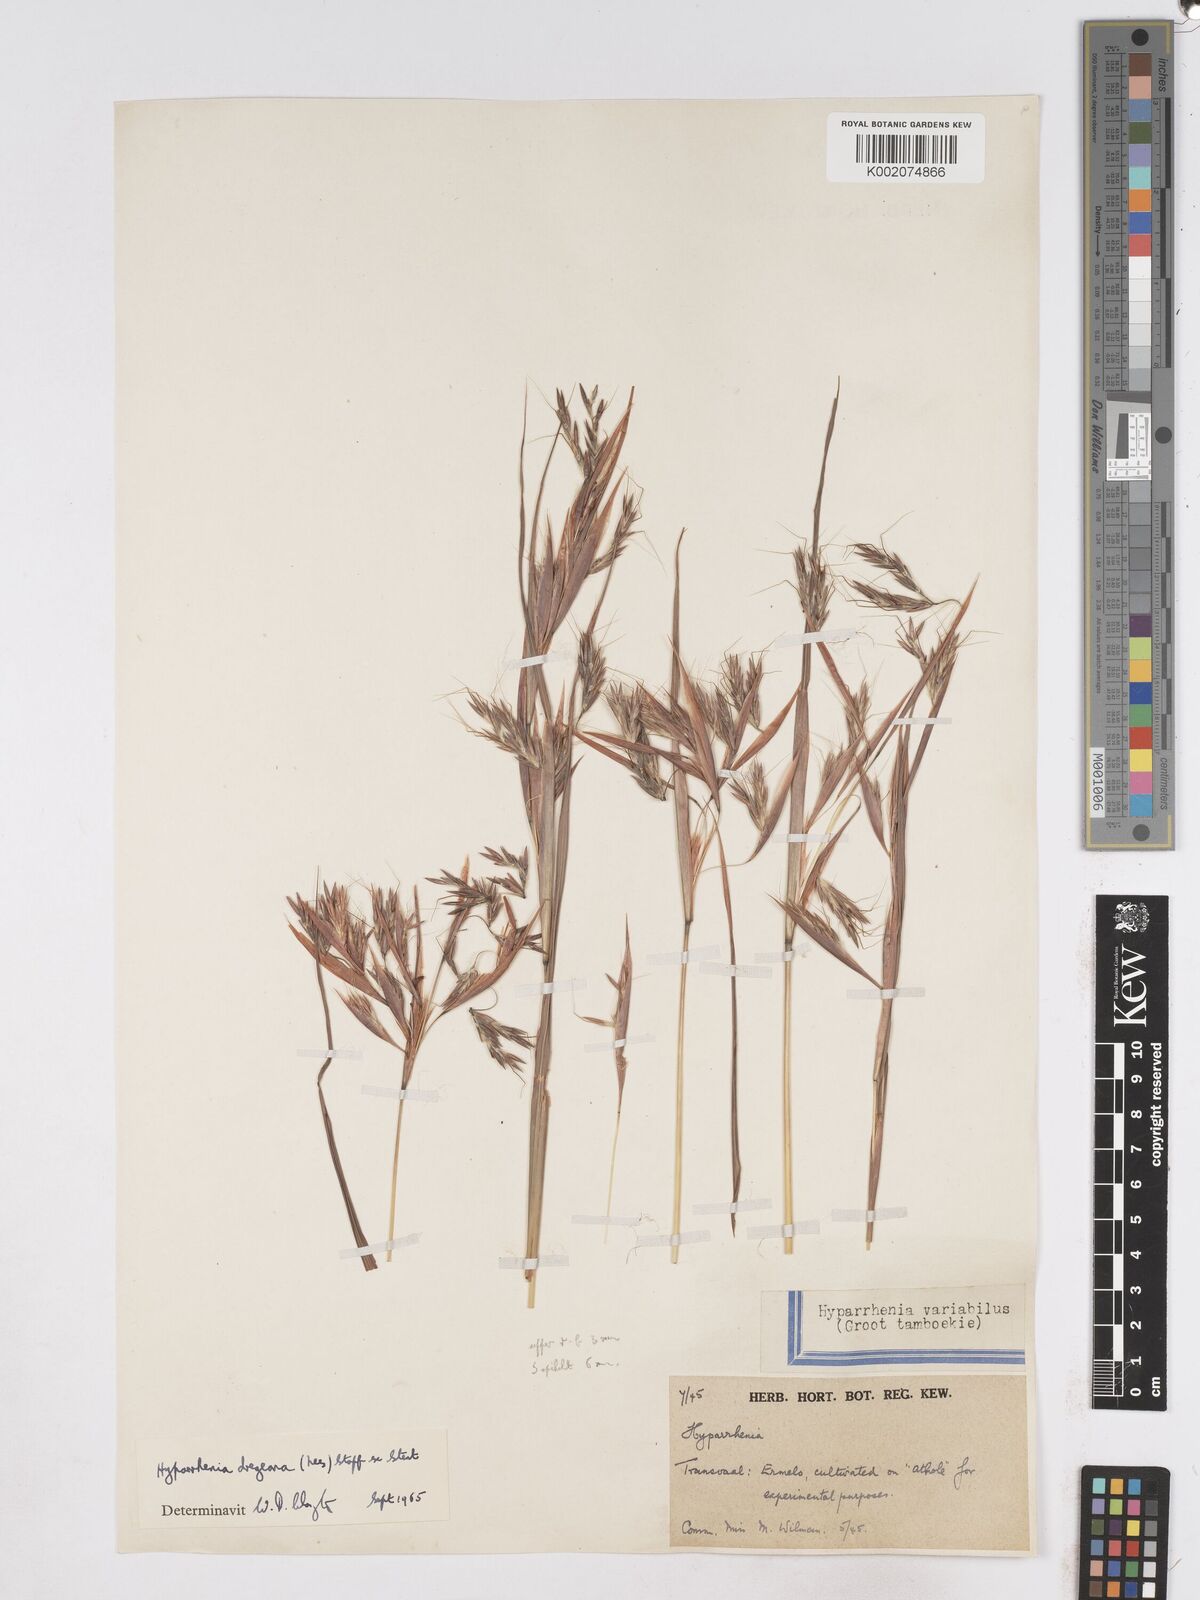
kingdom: Plantae
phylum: Tracheophyta
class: Liliopsida
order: Poales
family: Poaceae
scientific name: Poaceae
